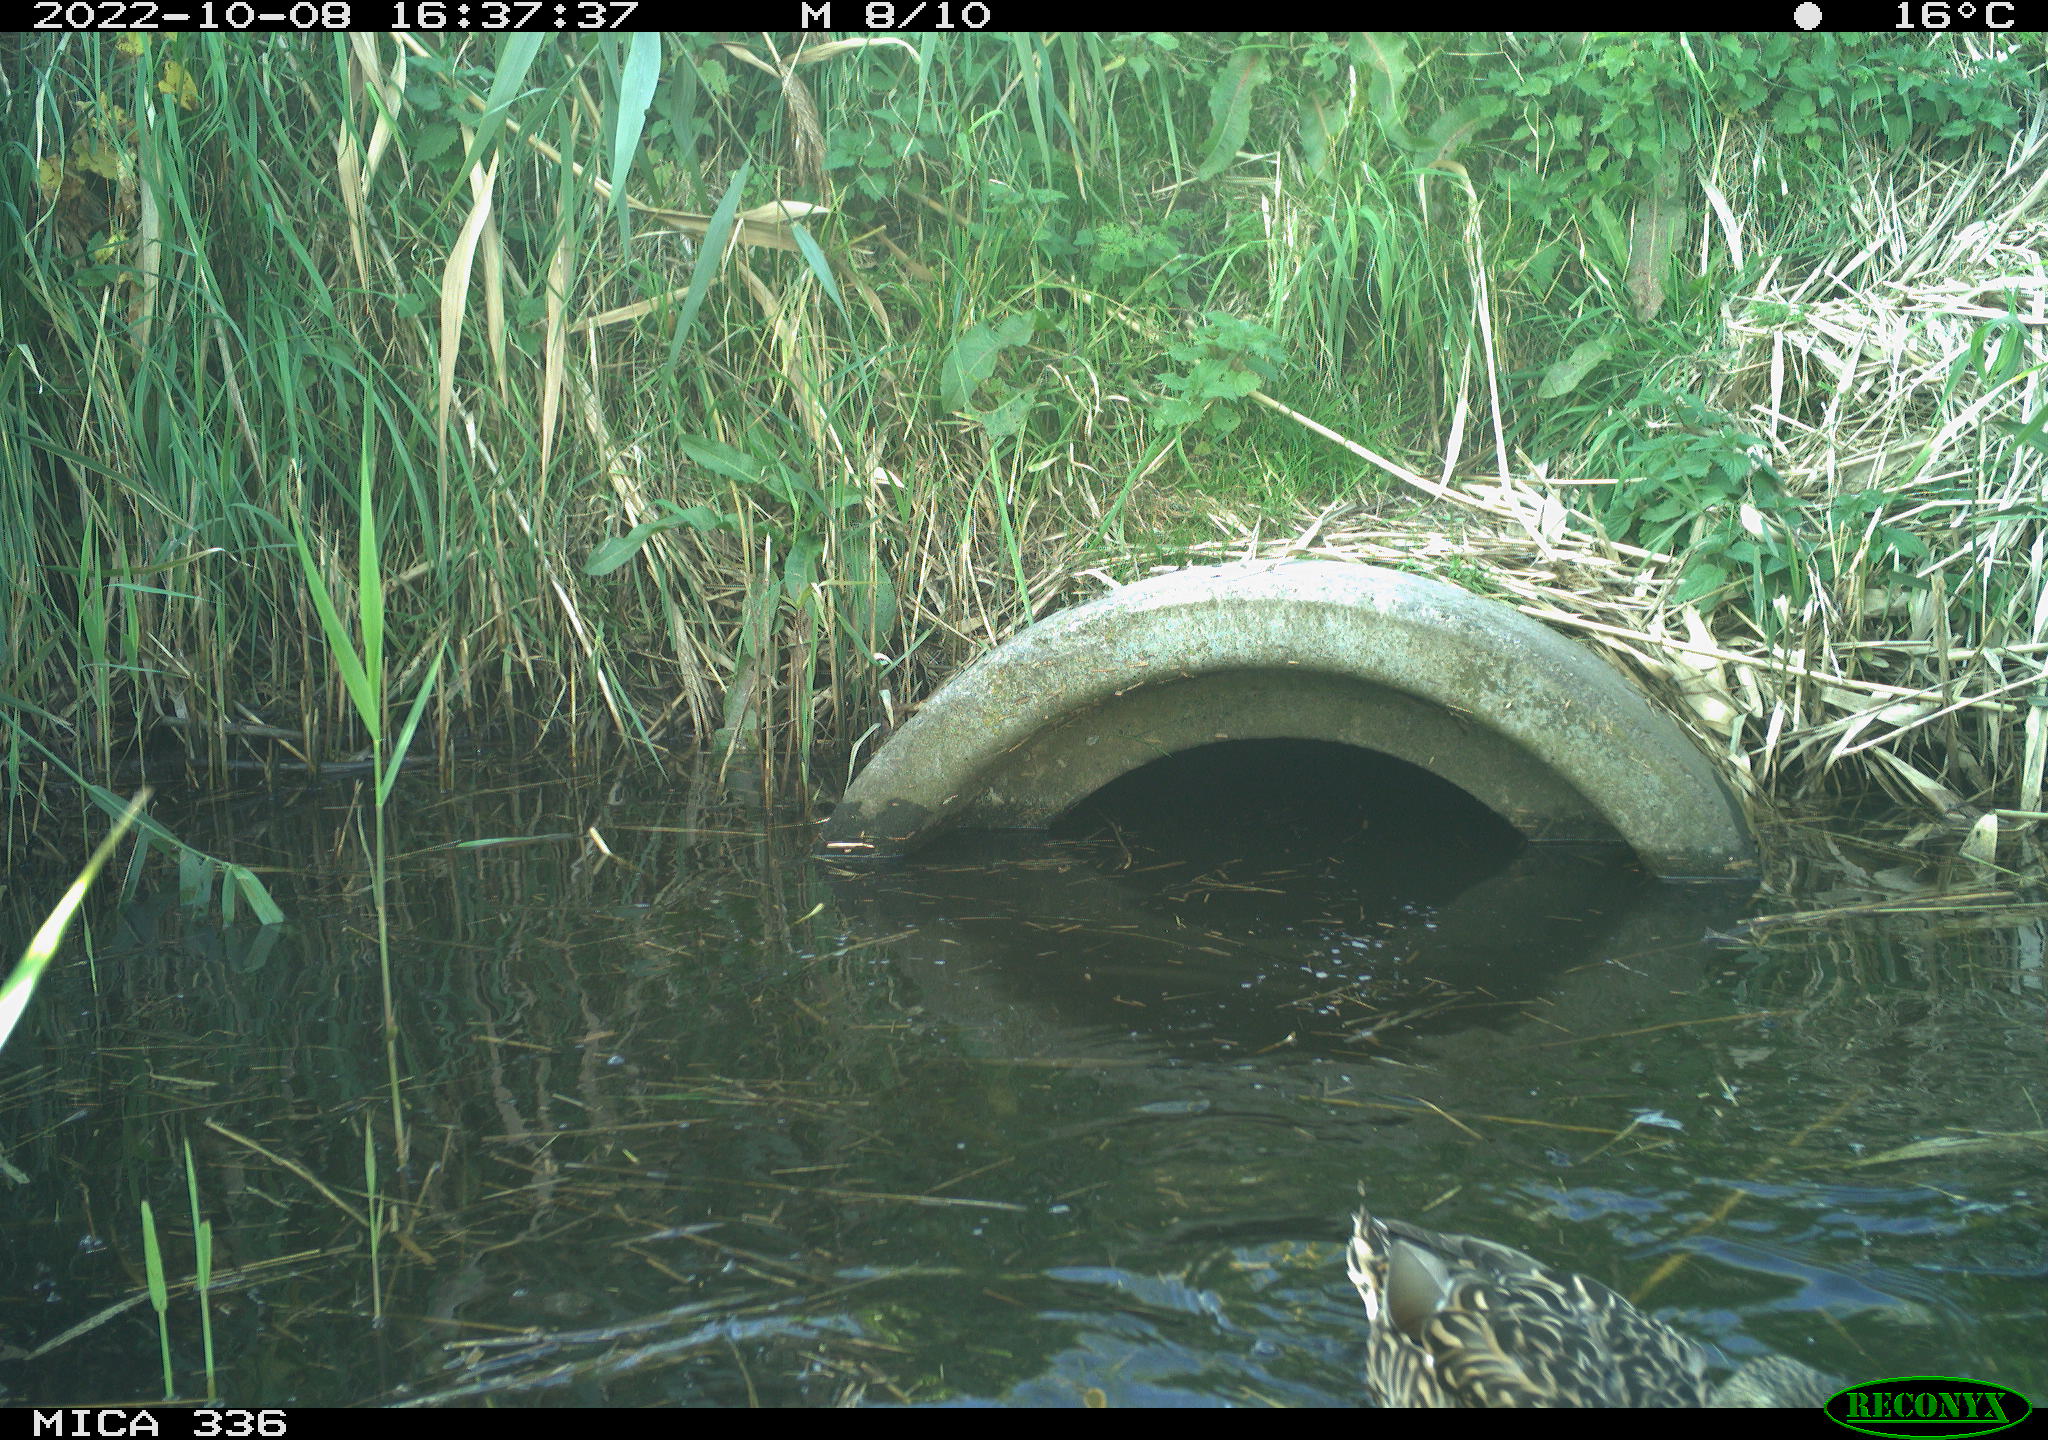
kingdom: Animalia
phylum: Chordata
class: Aves
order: Anseriformes
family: Anatidae
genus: Anas
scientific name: Anas
